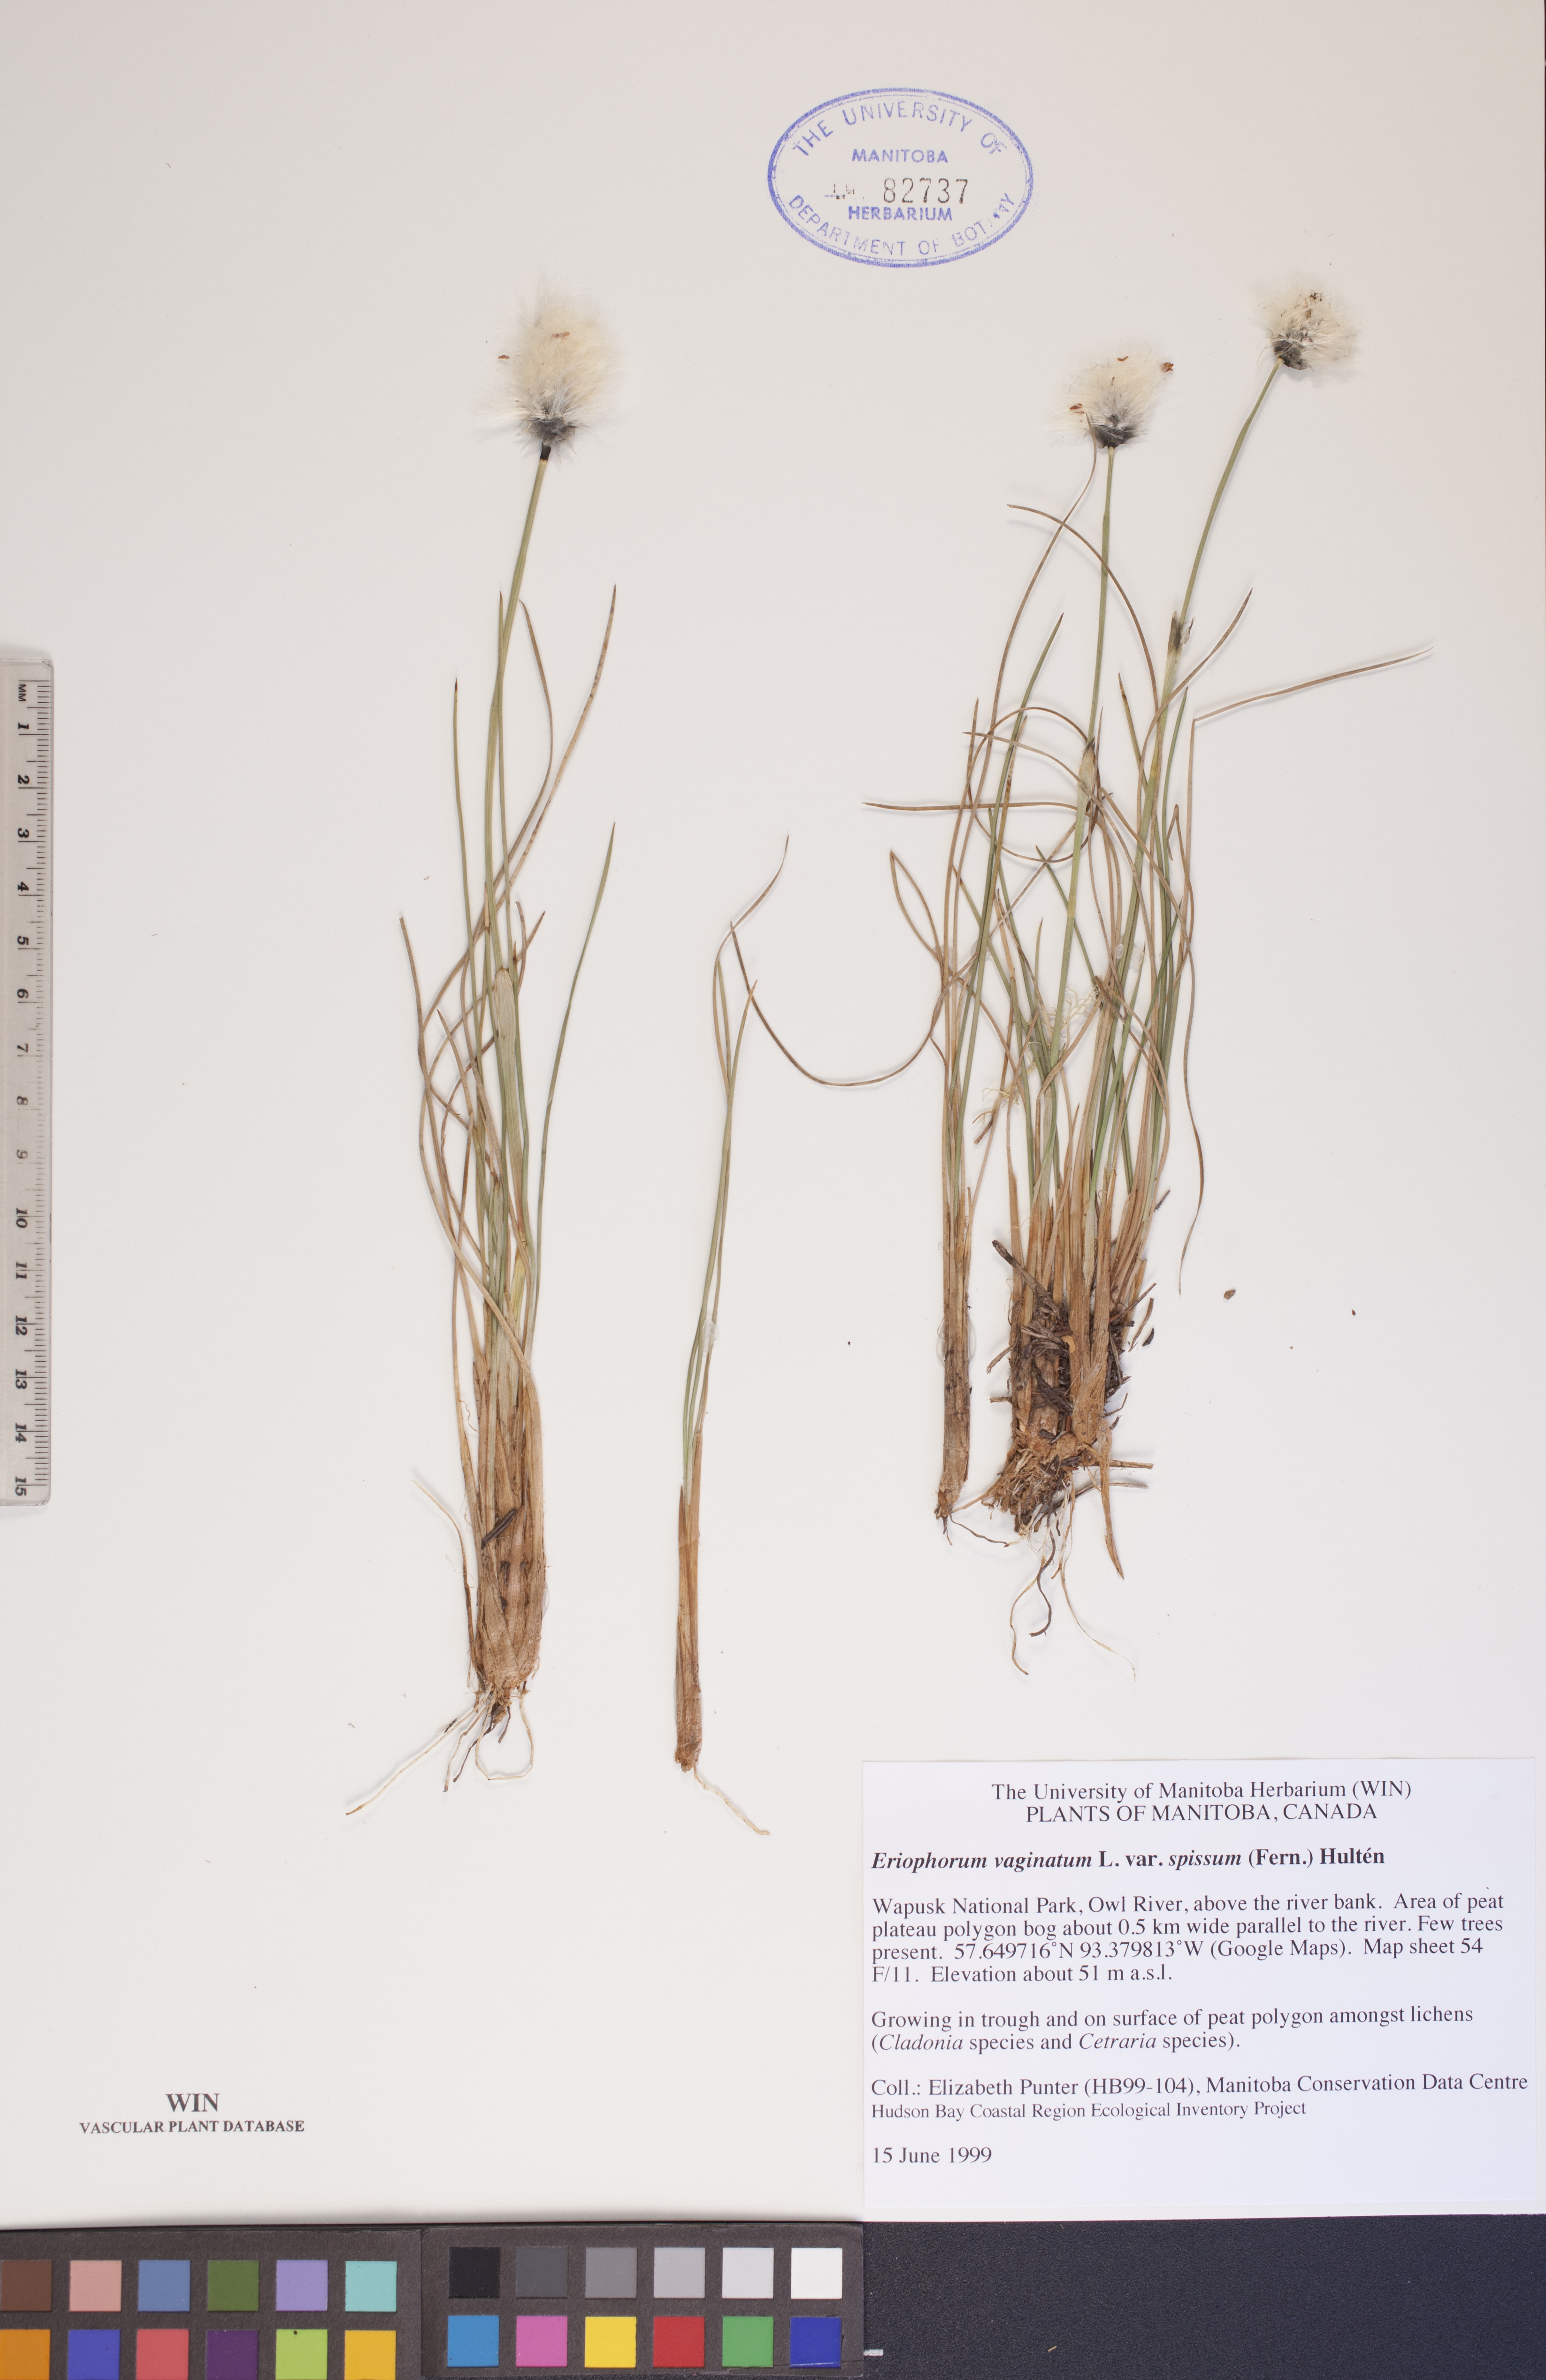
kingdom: Plantae
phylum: Tracheophyta
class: Liliopsida
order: Poales
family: Cyperaceae
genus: Eriophorum
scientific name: Eriophorum vaginatum
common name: Hare's-tail cottongrass
